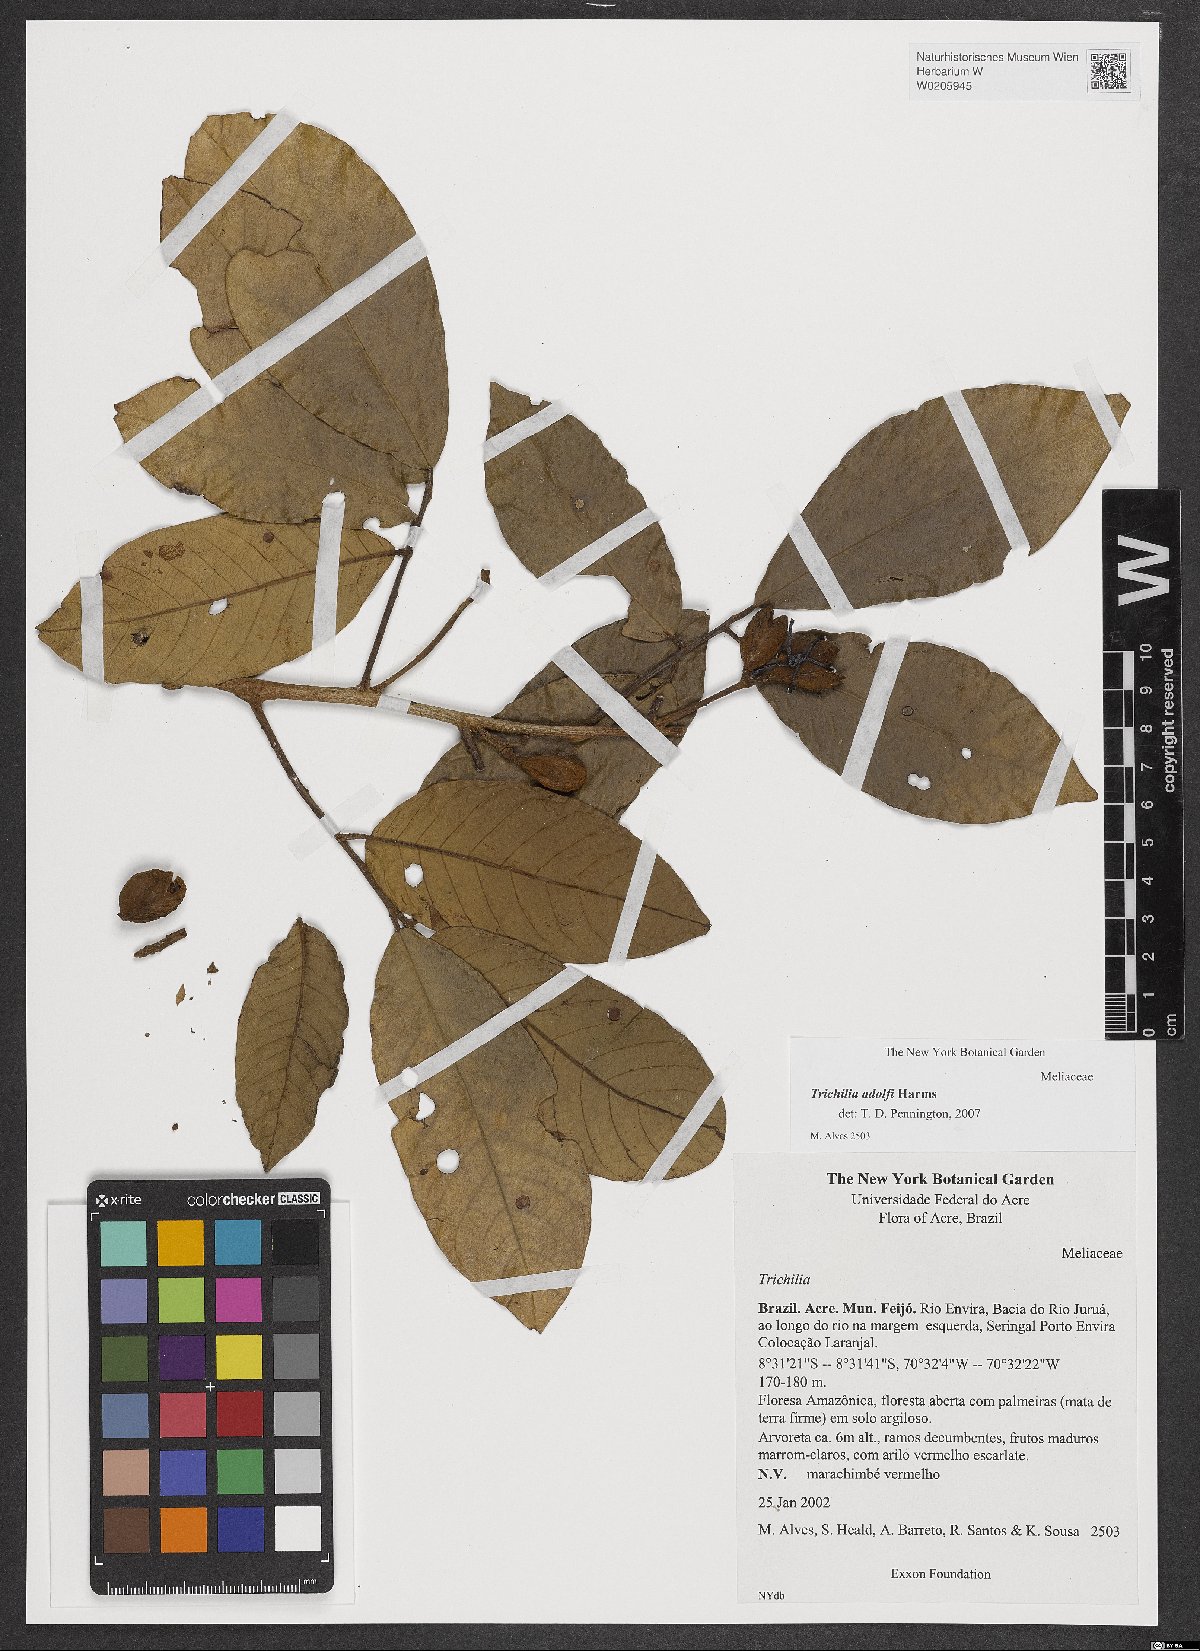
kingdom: Plantae
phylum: Tracheophyta
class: Magnoliopsida
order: Sapindales
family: Meliaceae
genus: Trichilia
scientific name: Trichilia adolfi
